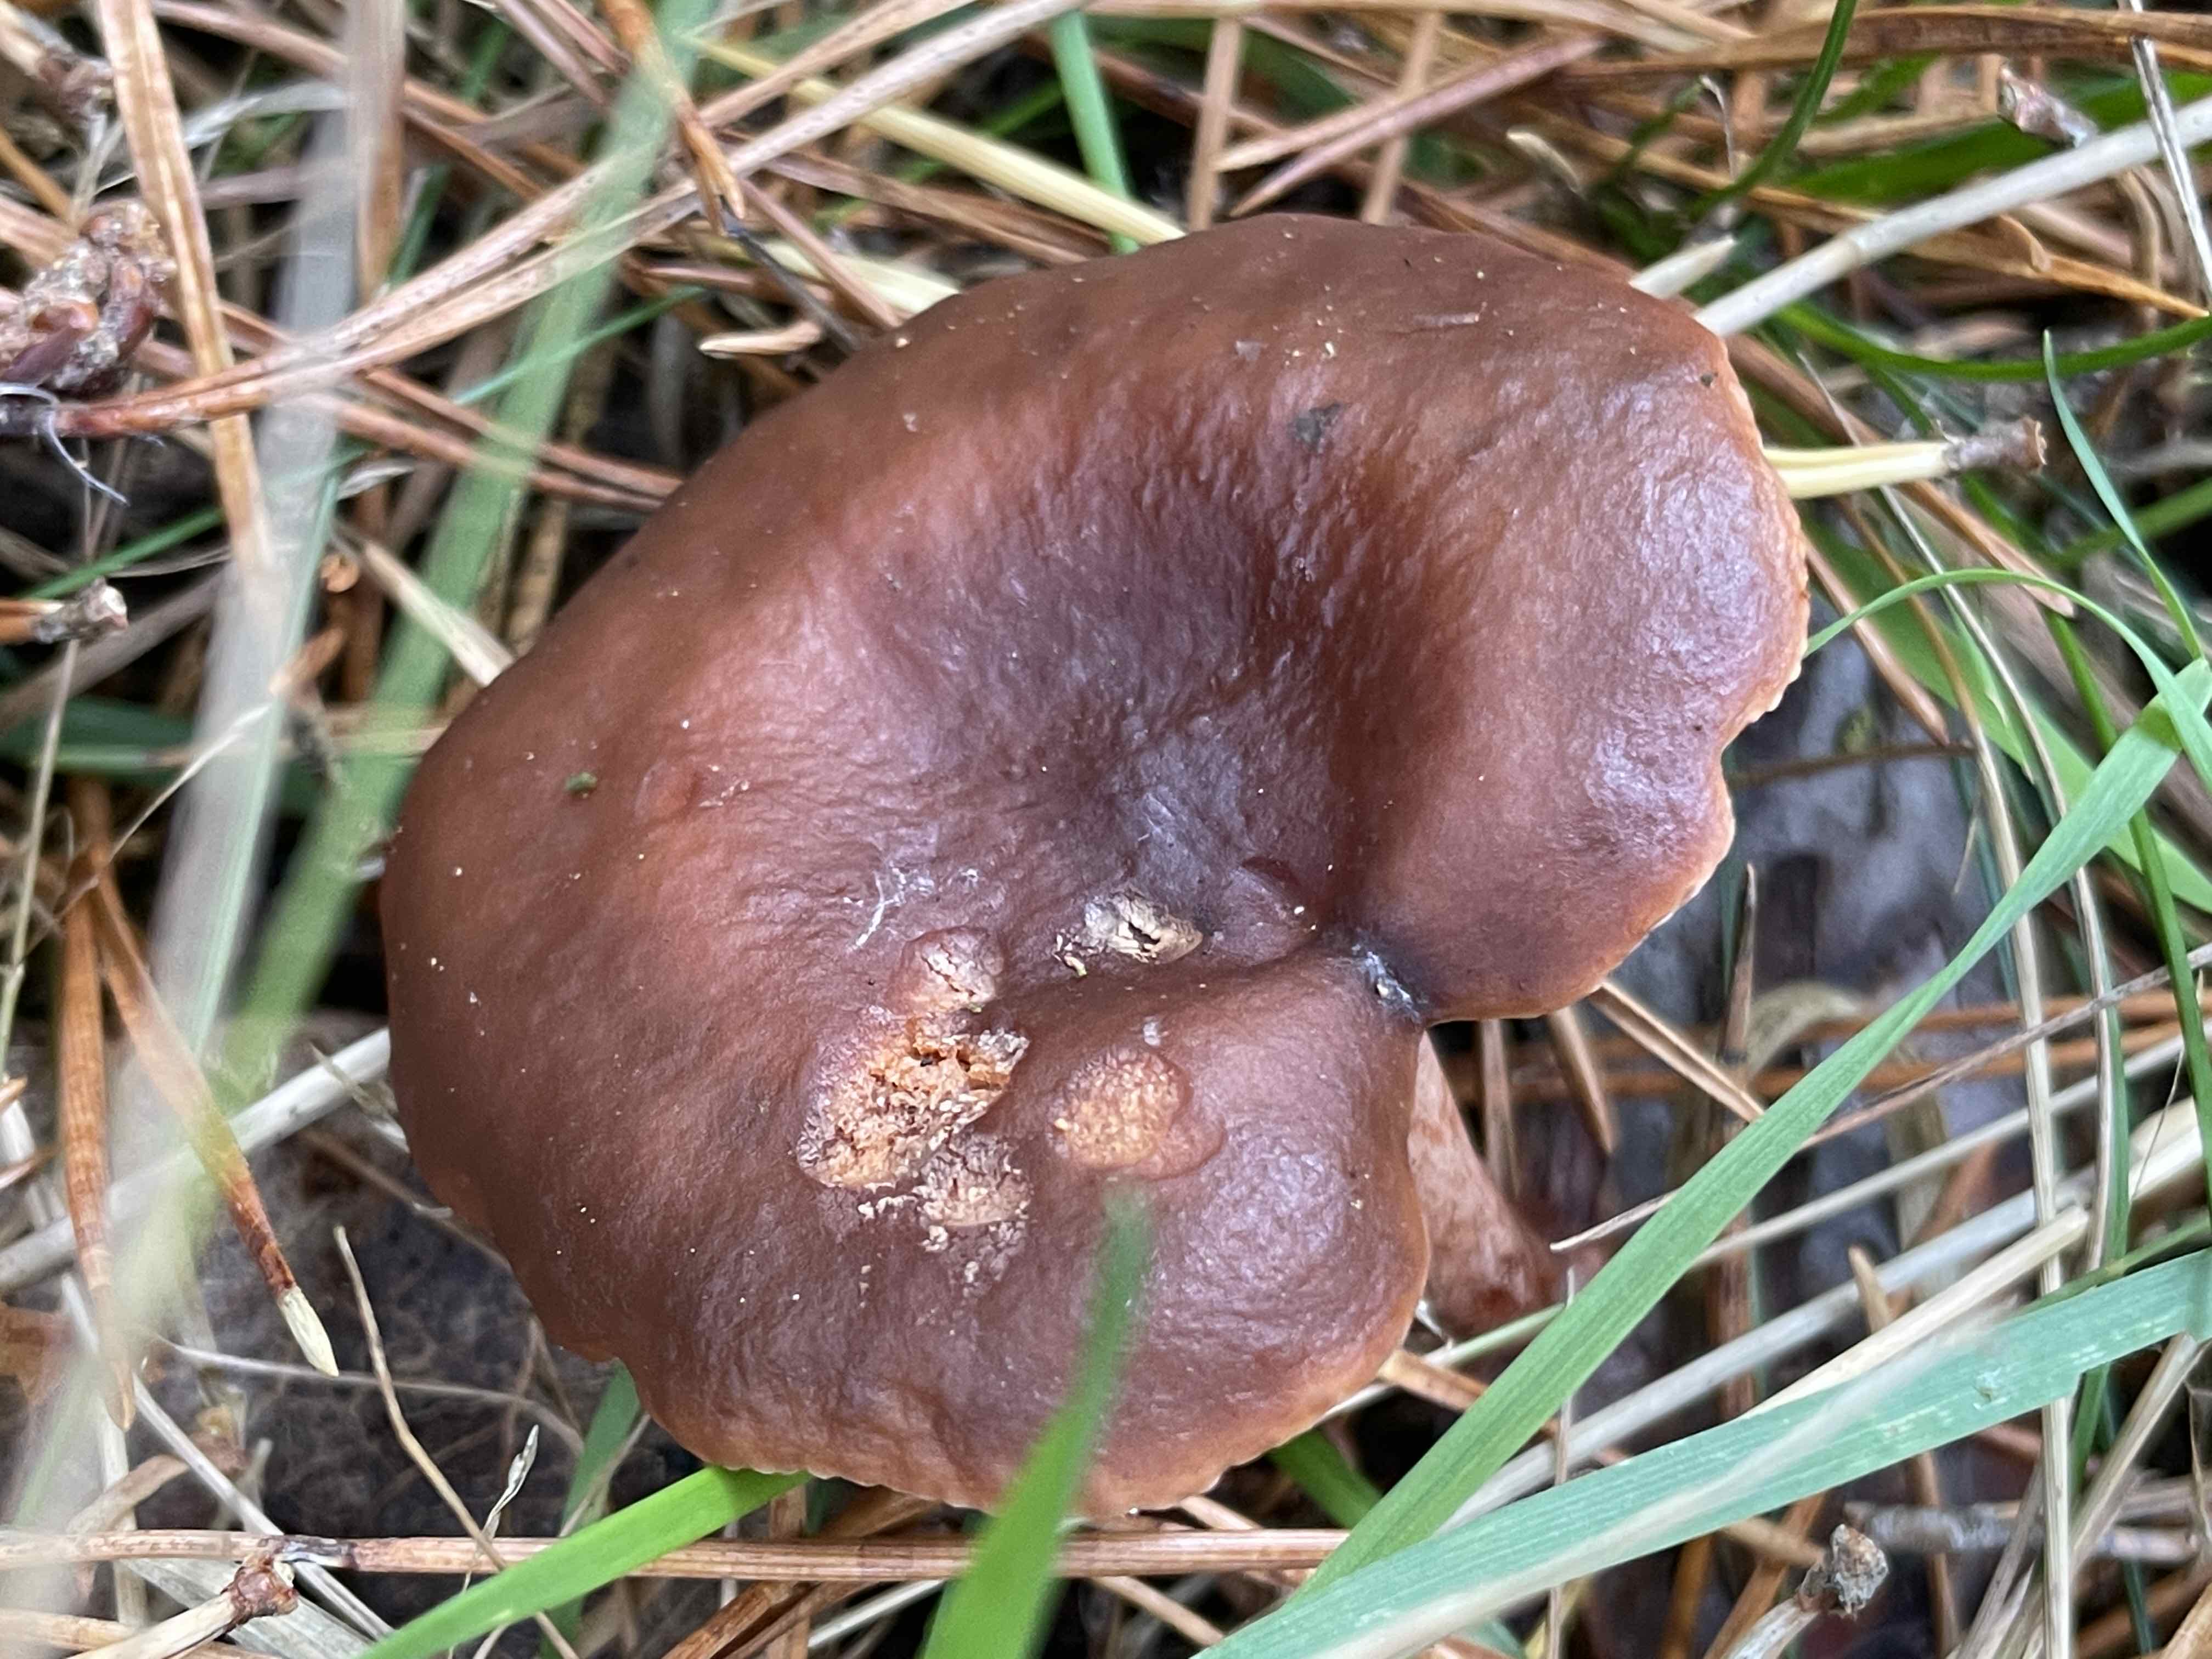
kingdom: Fungi
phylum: Basidiomycota
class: Agaricomycetes
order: Russulales
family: Russulaceae
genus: Lactarius
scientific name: Lactarius camphoratus
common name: kamfer-mælkehat
